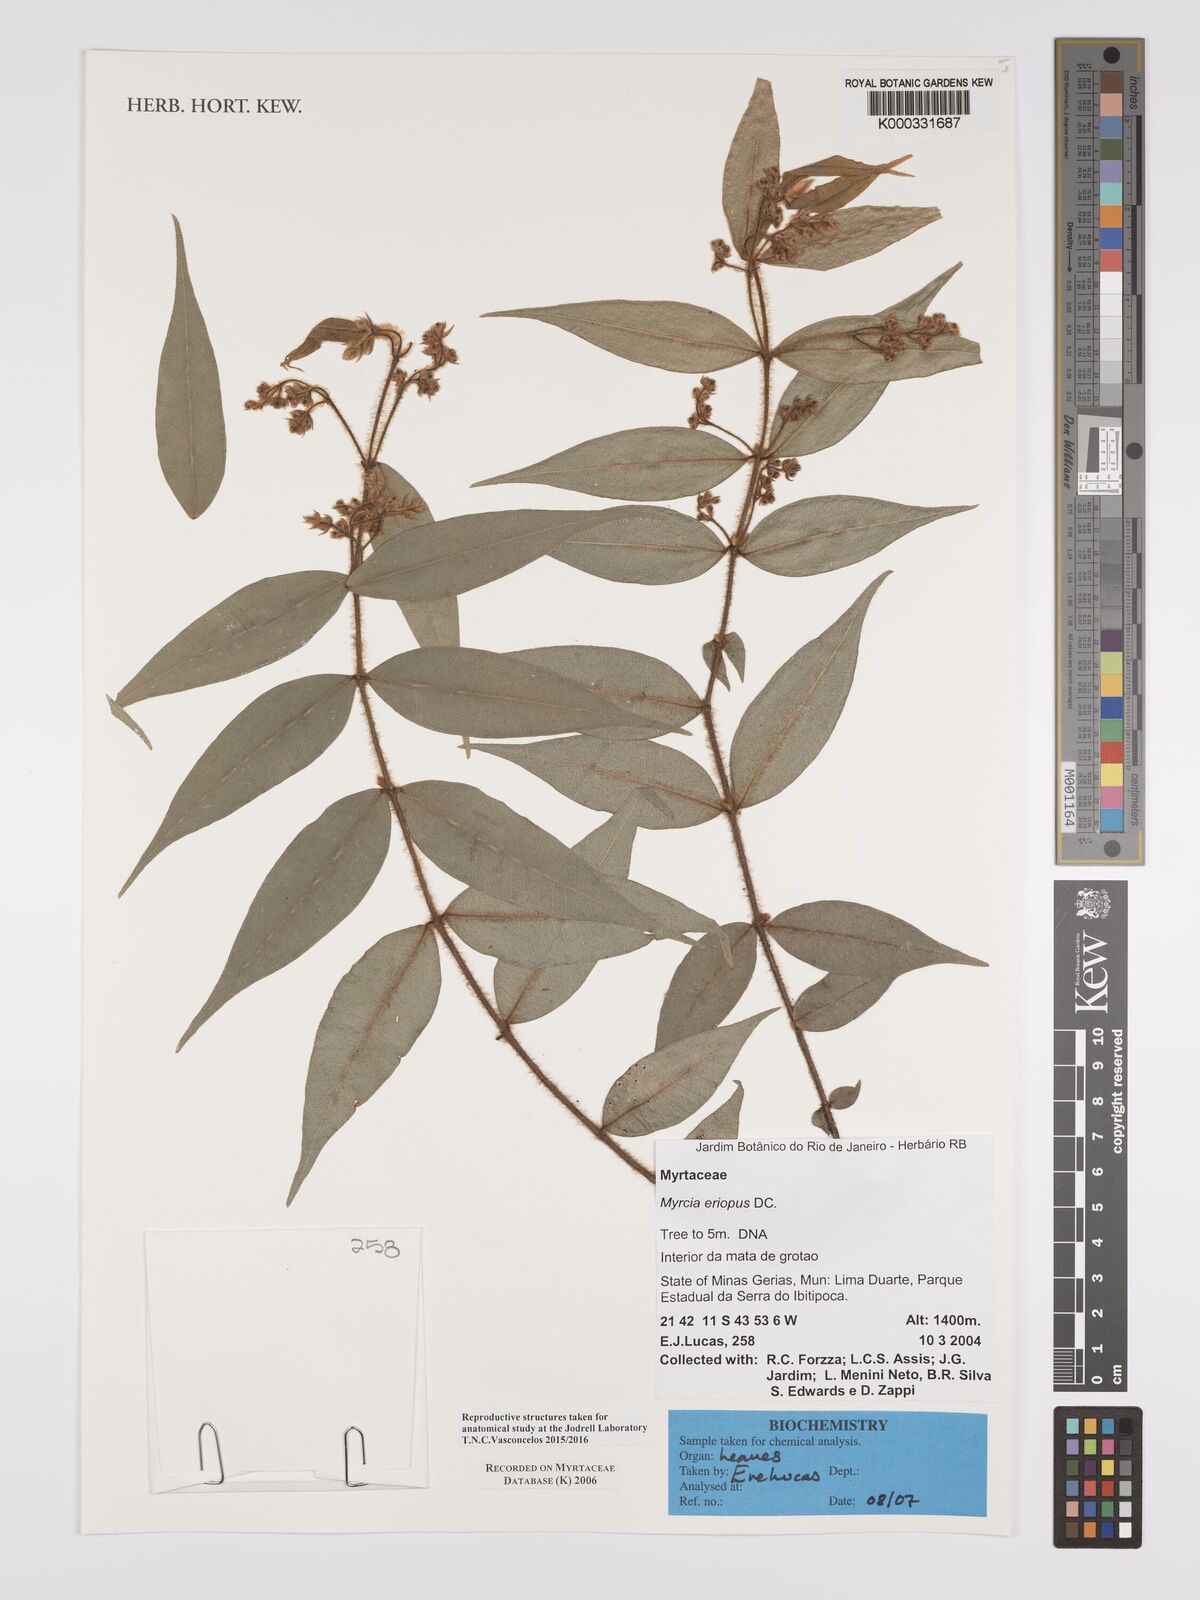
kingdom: Plantae
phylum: Tracheophyta
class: Magnoliopsida
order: Myrtales
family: Myrtaceae
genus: Myrcia
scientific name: Myrcia eriopus
